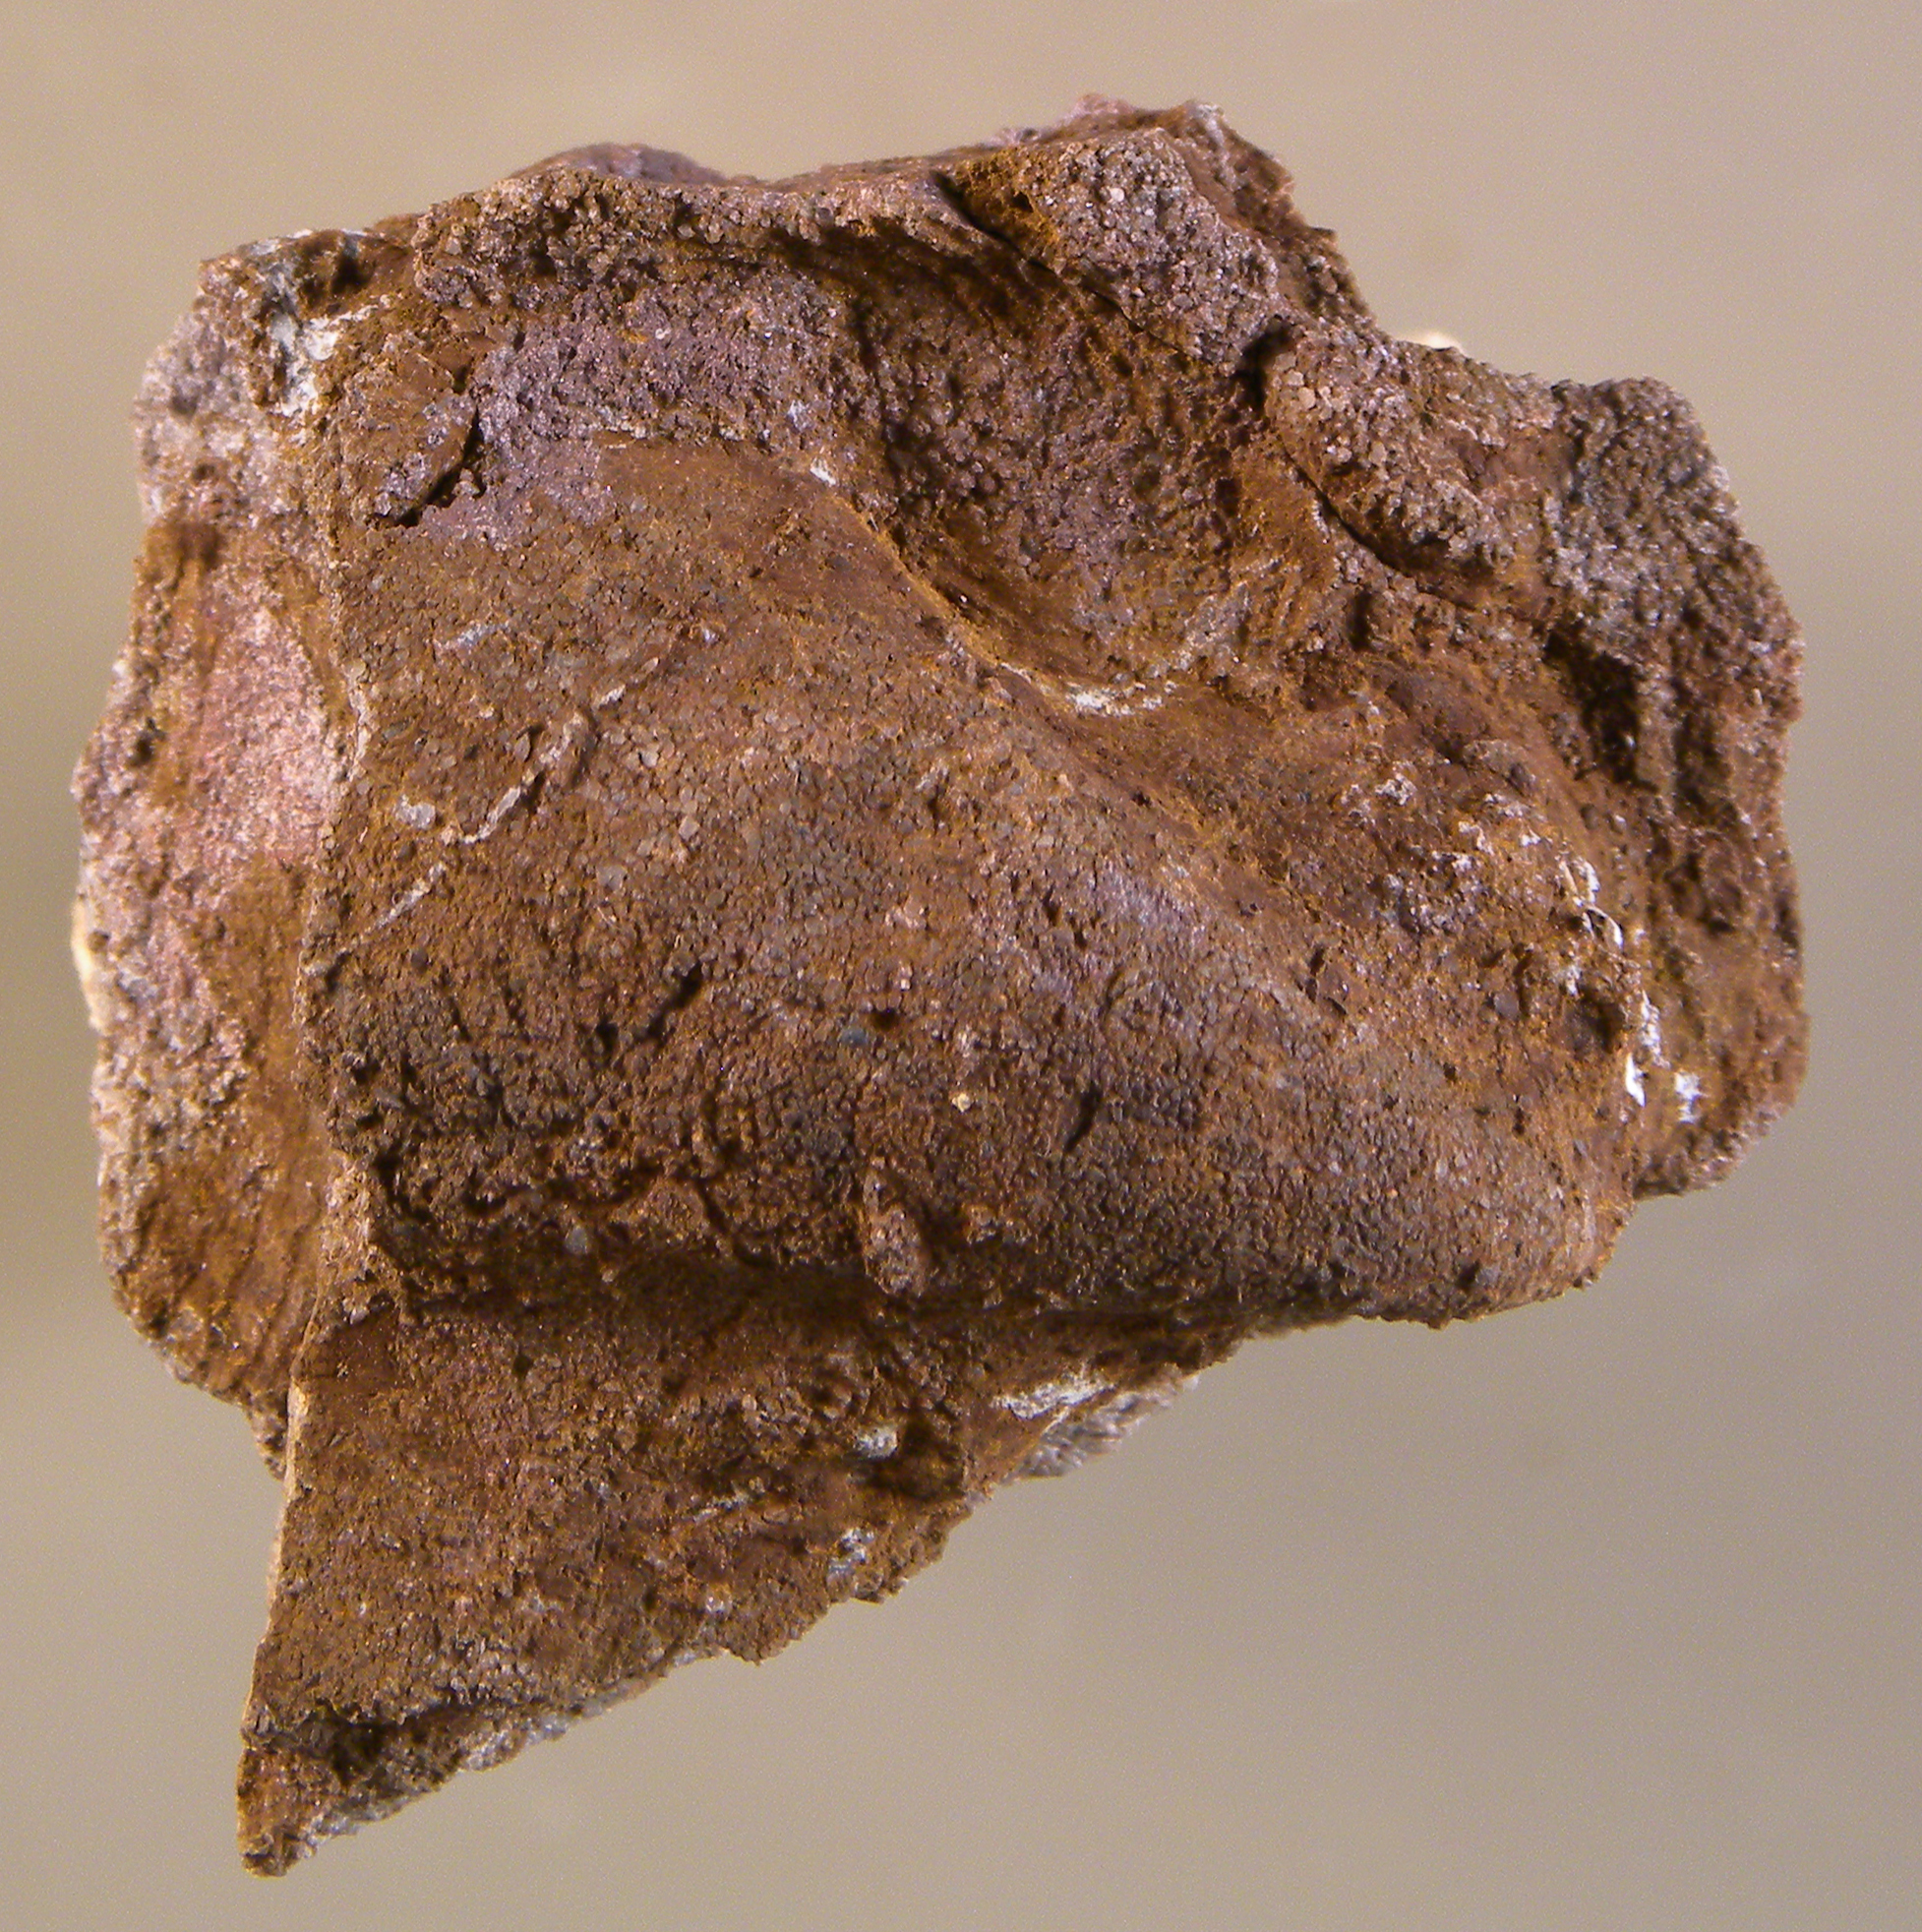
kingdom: Animalia
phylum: Mollusca
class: Bivalvia
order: Ostreida
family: Pterineidae
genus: Ptychopteria
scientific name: Ptychopteria
